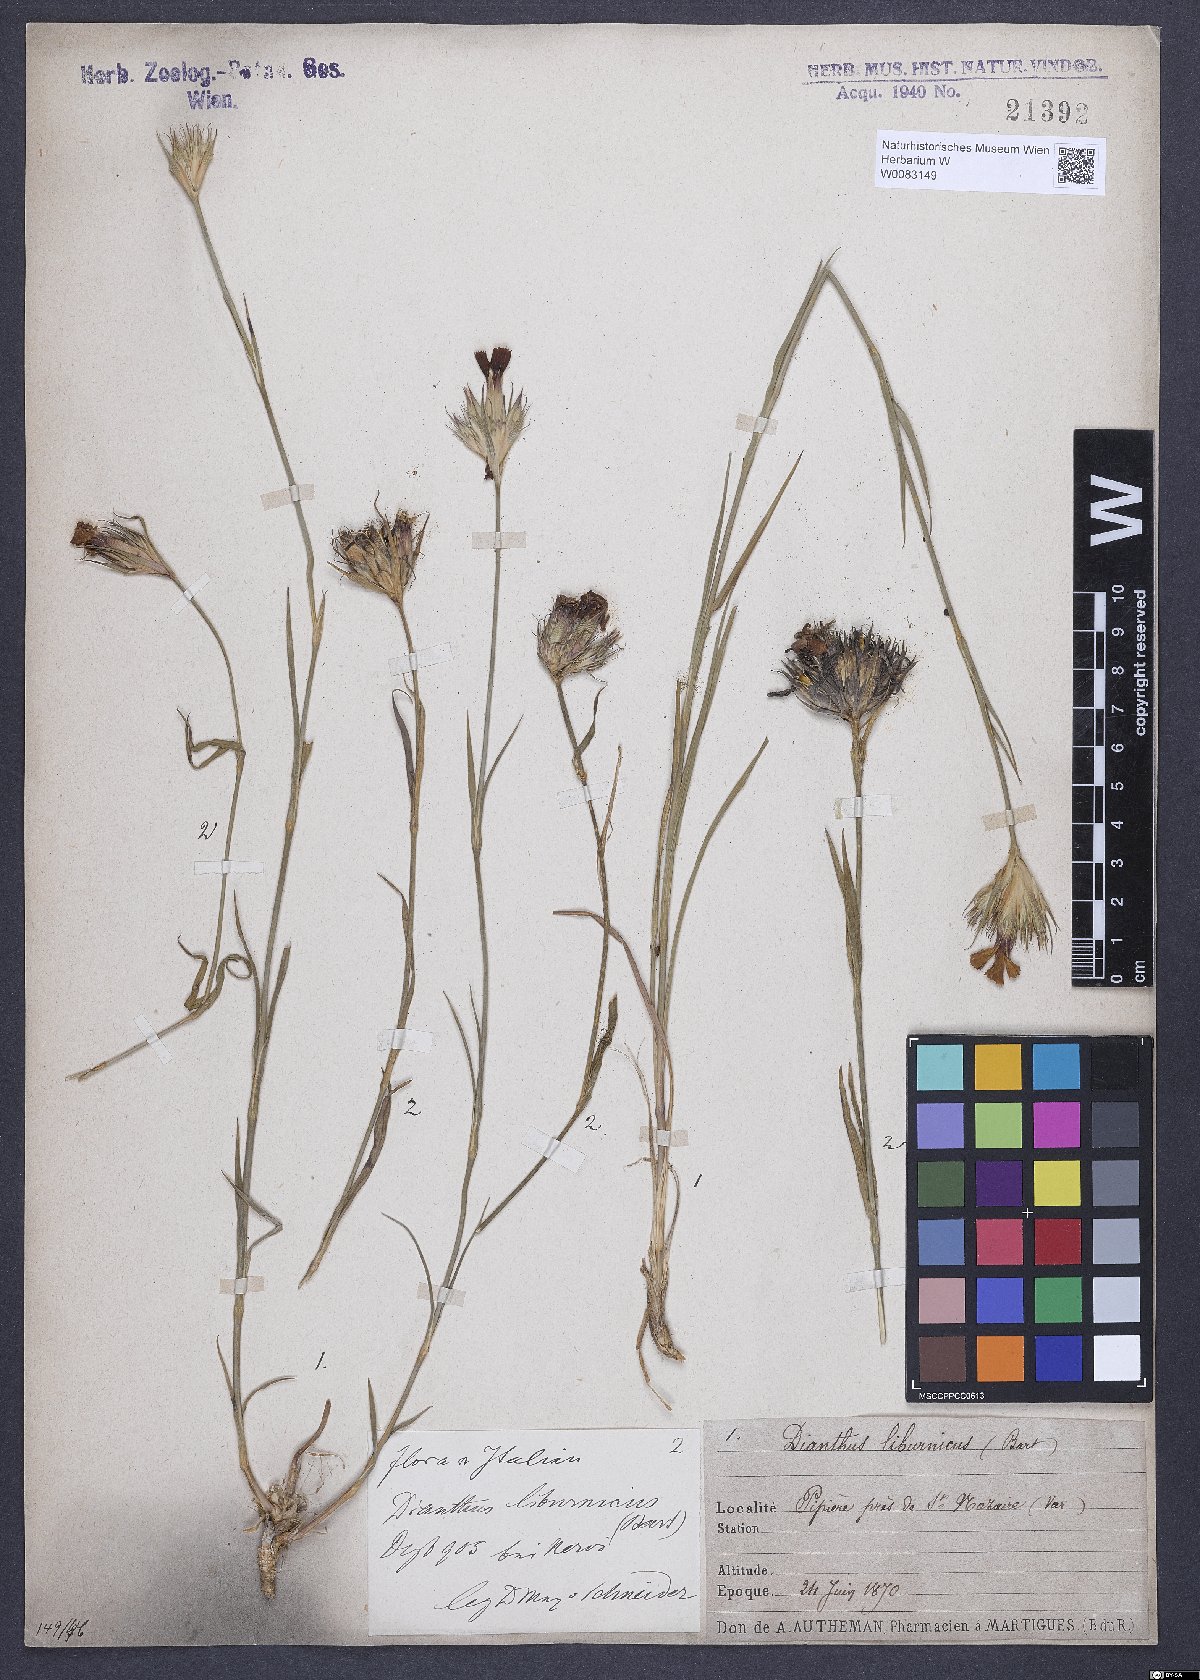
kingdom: Plantae
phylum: Tracheophyta
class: Magnoliopsida
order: Caryophyllales
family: Caryophyllaceae
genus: Dianthus
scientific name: Dianthus balbisii
